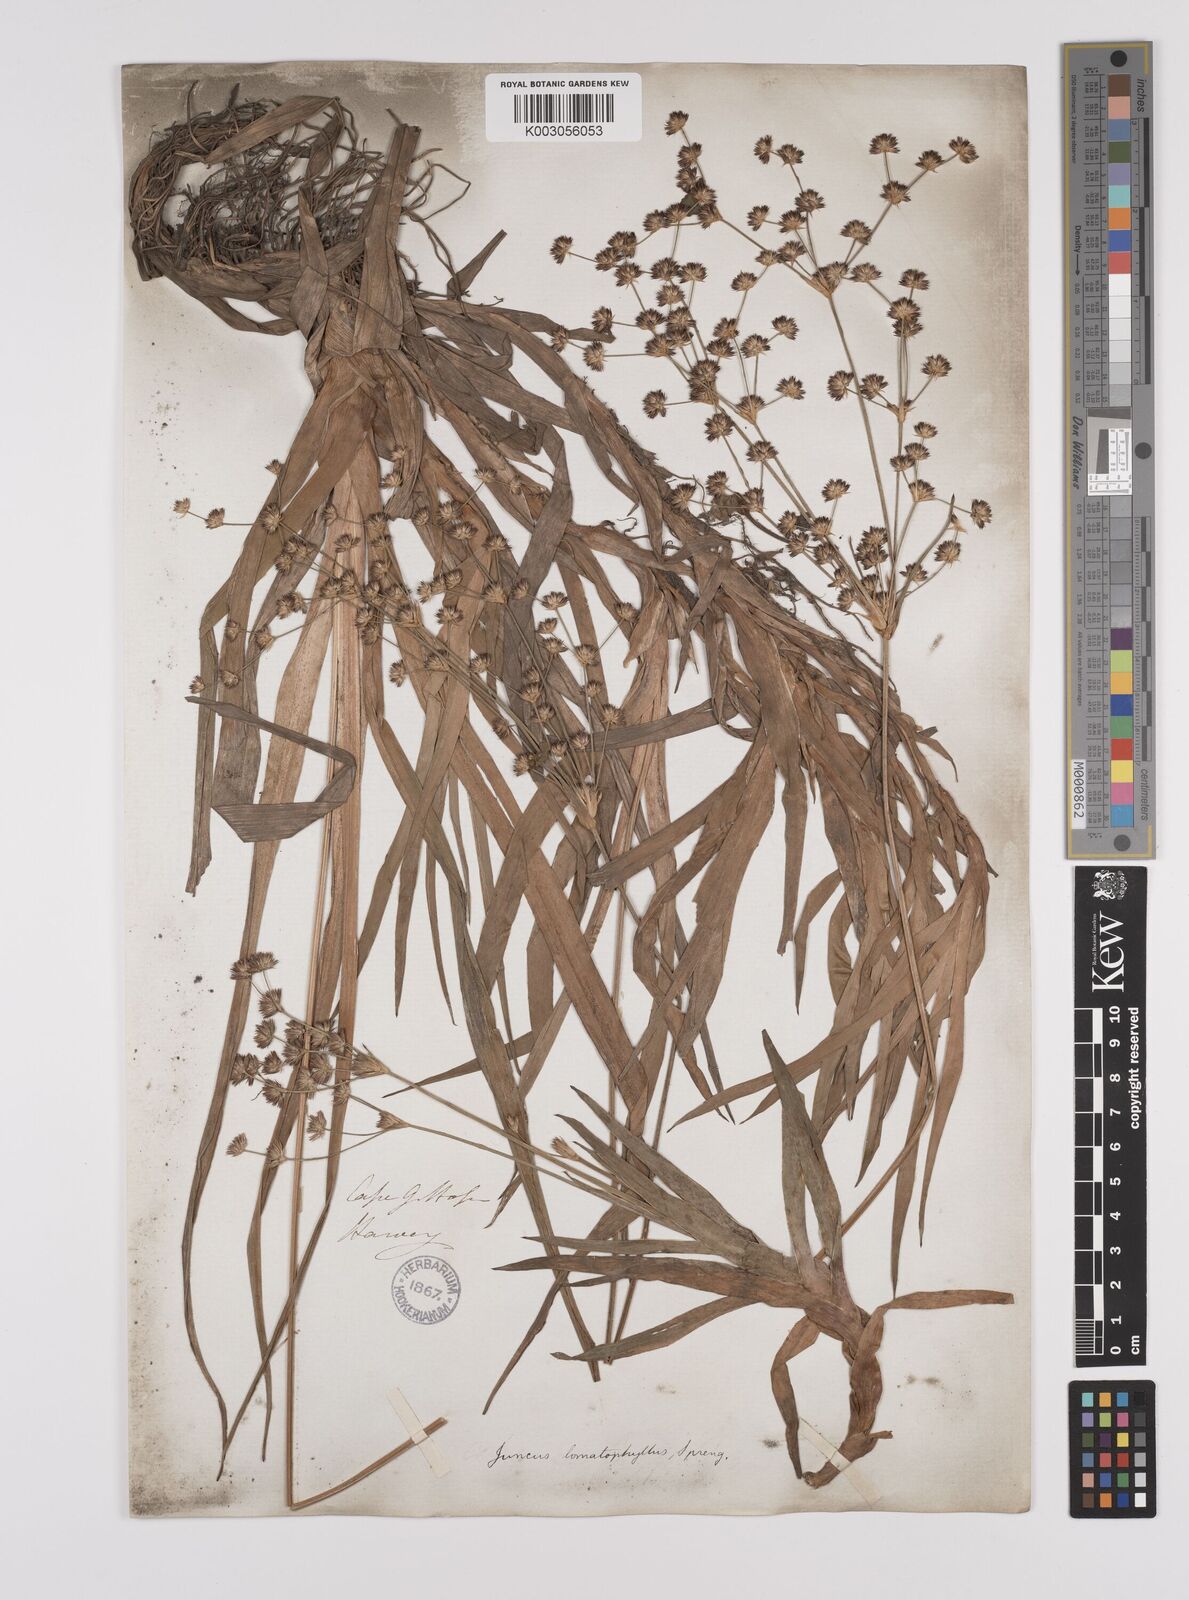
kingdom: Plantae
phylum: Tracheophyta
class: Liliopsida
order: Poales
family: Juncaceae
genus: Juncus
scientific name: Juncus lomatophyllus
